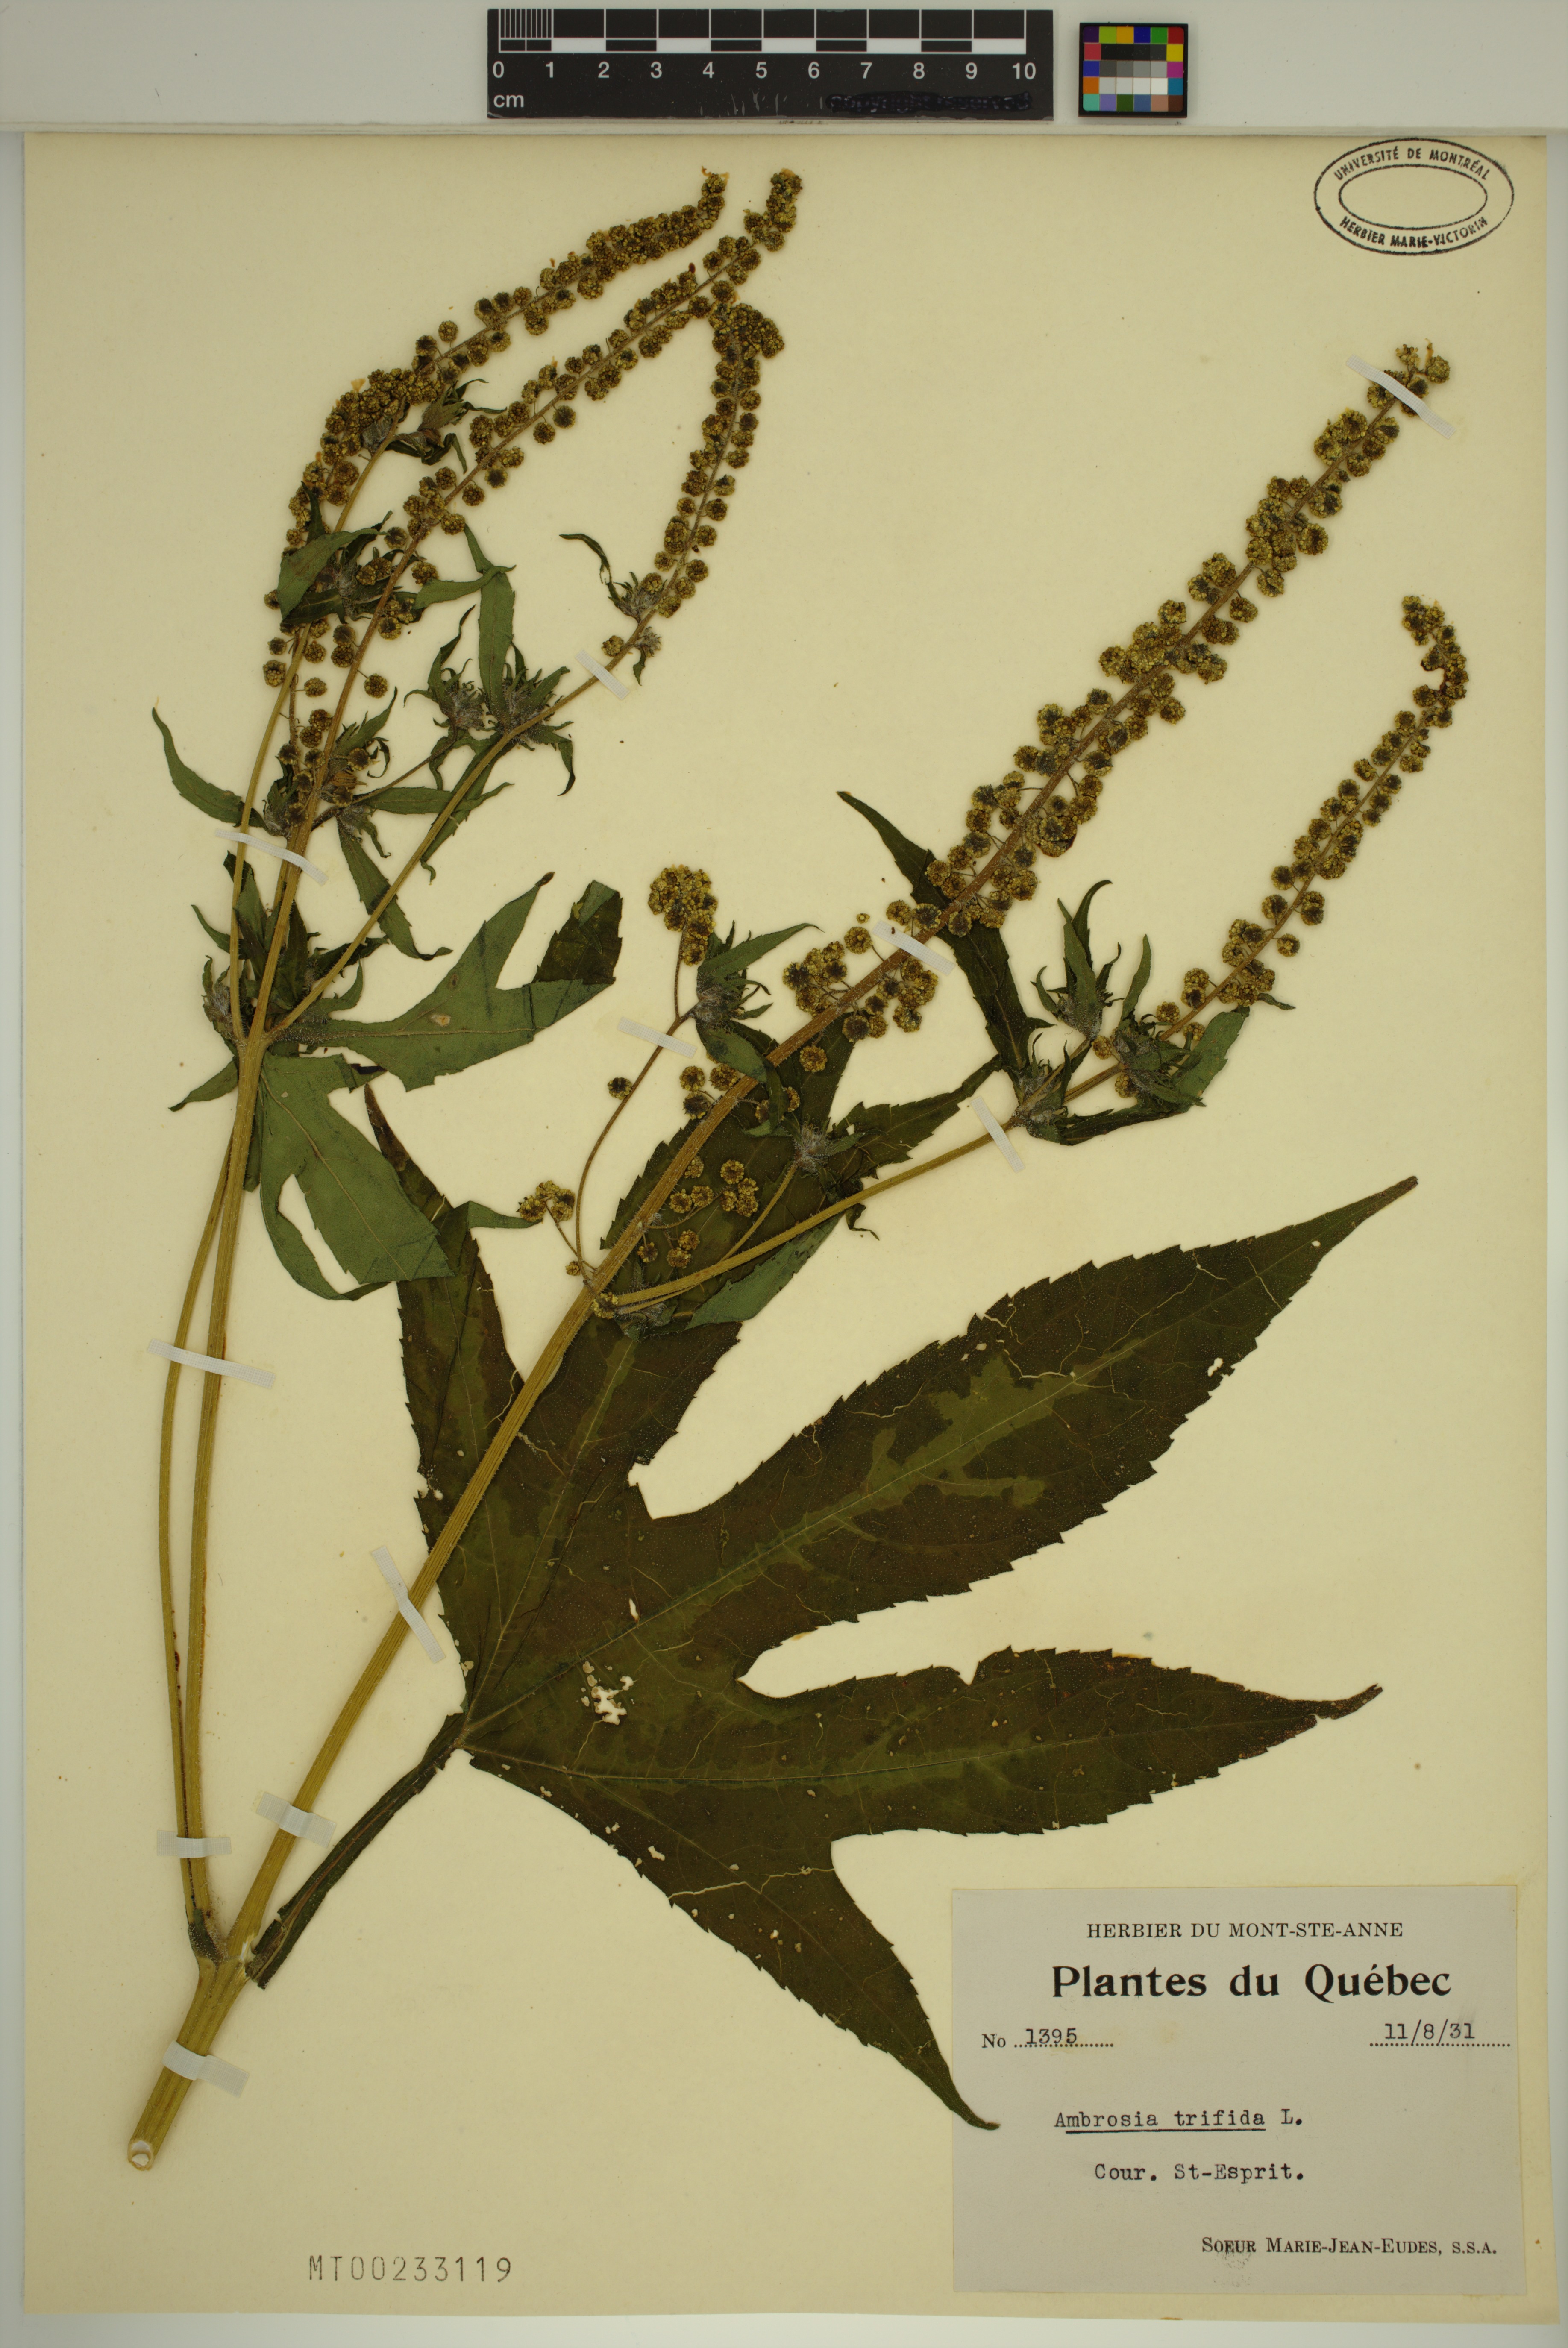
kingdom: Plantae
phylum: Tracheophyta
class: Magnoliopsida
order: Asterales
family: Asteraceae
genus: Ambrosia
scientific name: Ambrosia trifida
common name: Giant ragweed
